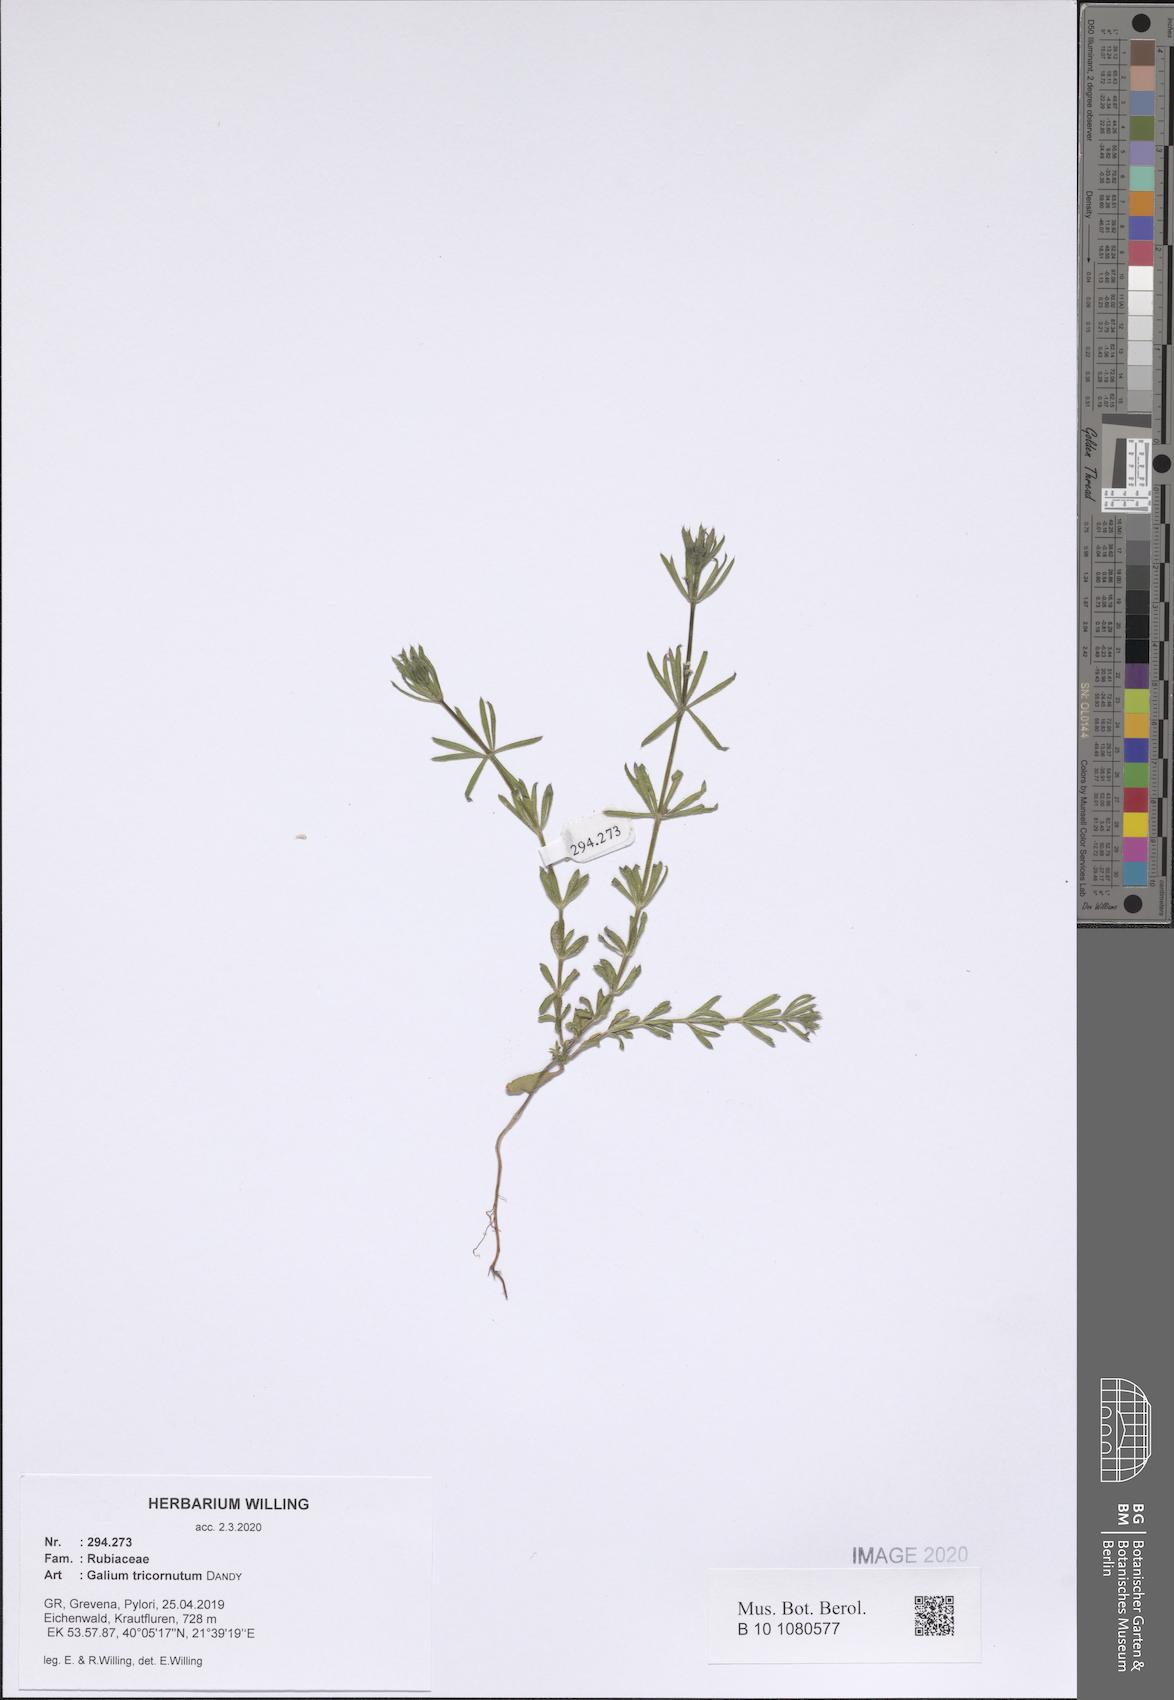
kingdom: Plantae
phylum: Tracheophyta
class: Magnoliopsida
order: Gentianales
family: Rubiaceae
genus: Galium
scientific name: Galium tricornutum
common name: Corn cleavers
